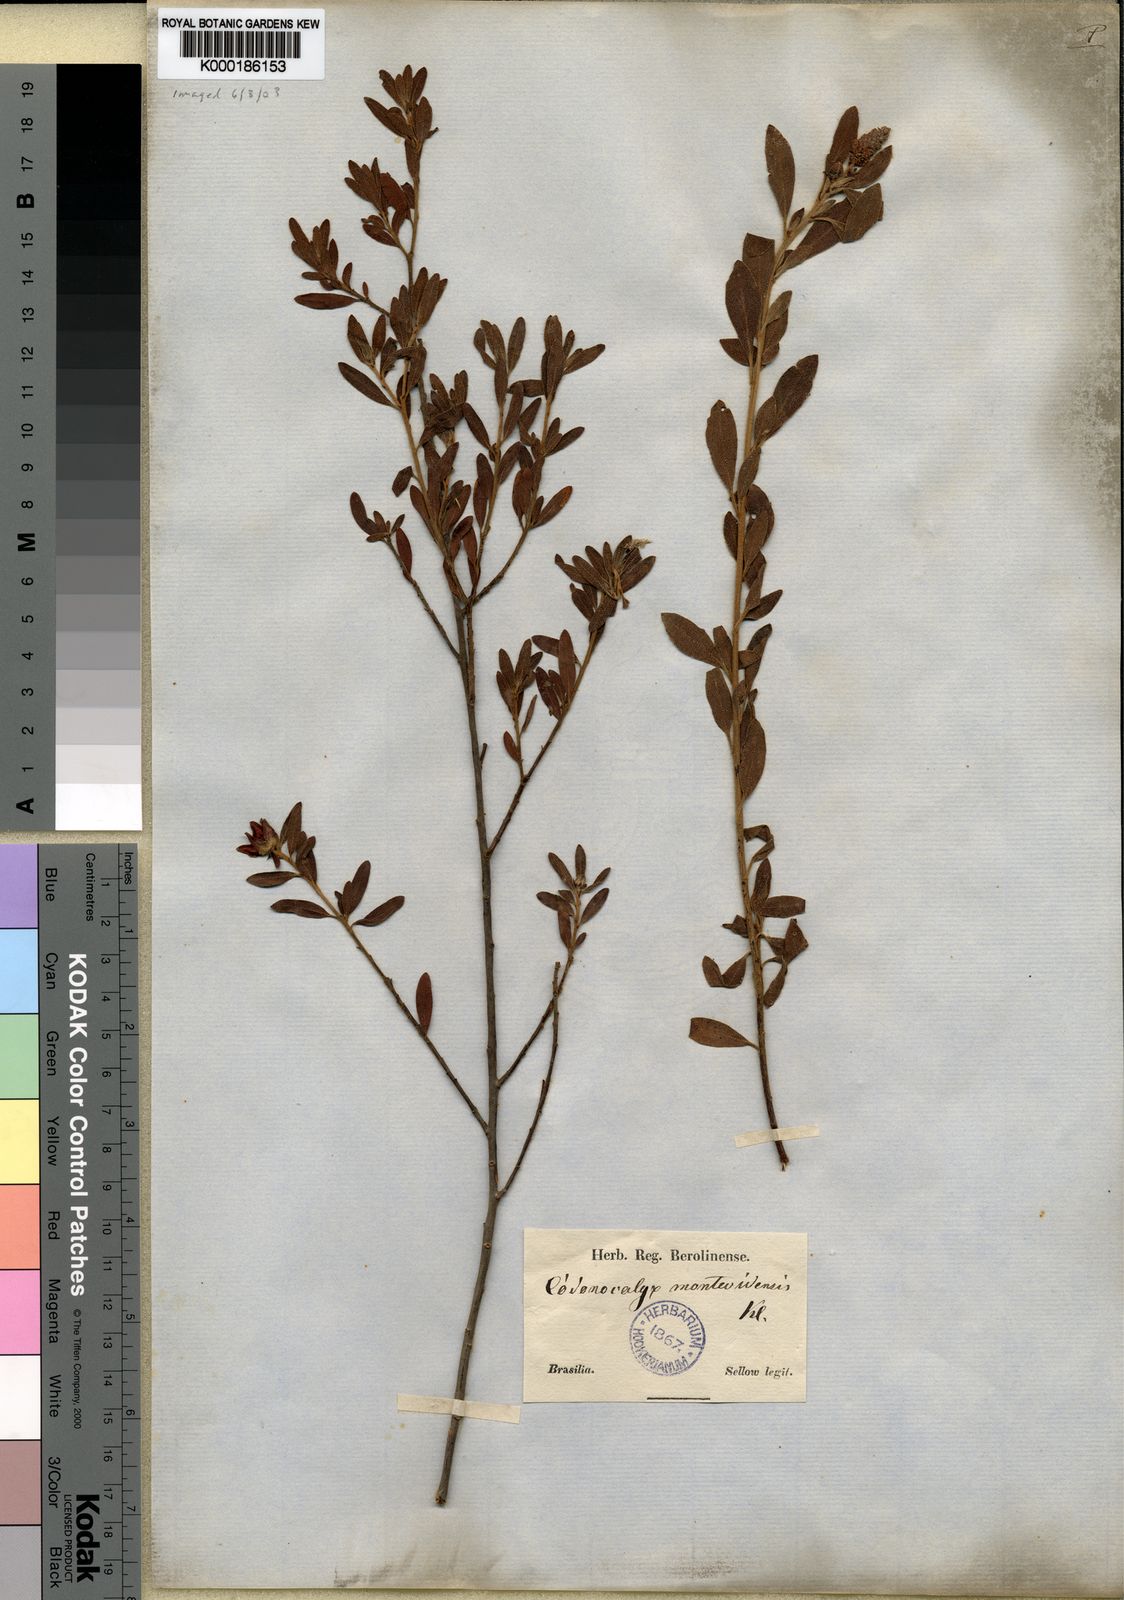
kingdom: Plantae
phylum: Tracheophyta
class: Magnoliopsida
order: Malpighiales
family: Euphorbiaceae
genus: Croton
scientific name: Croton montevidensis
